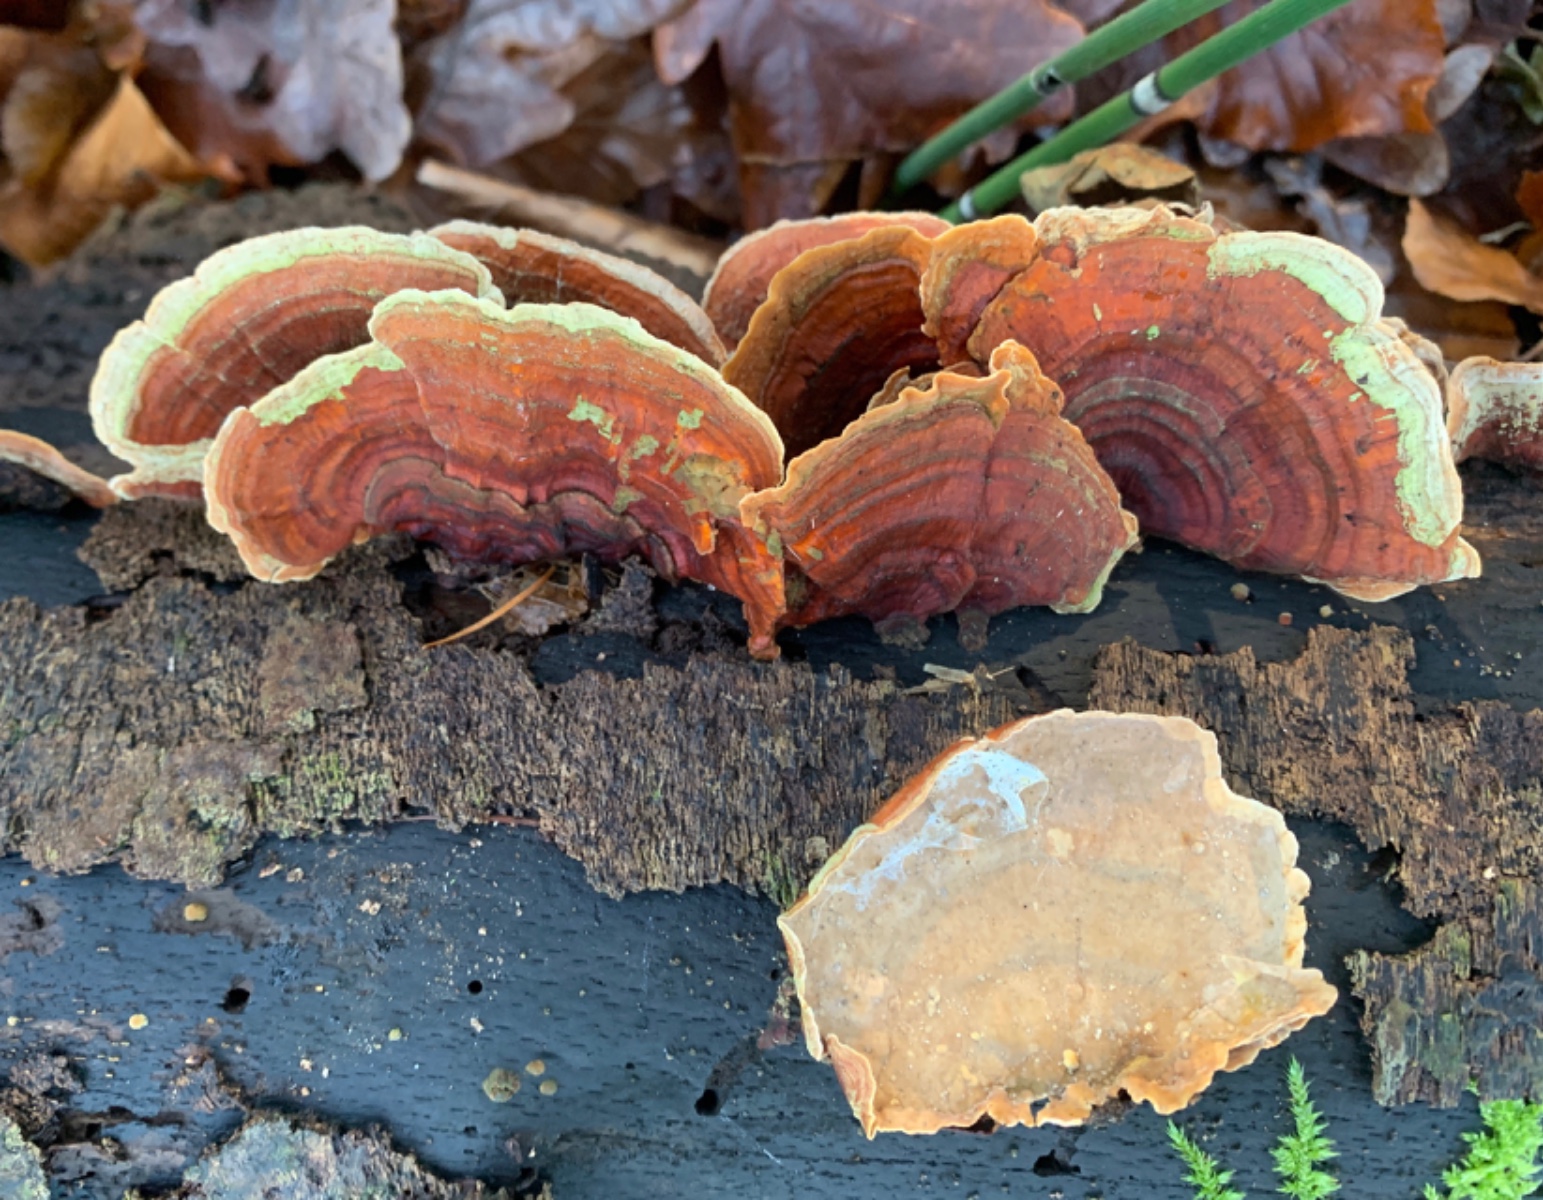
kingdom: Fungi
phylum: Basidiomycota
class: Agaricomycetes
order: Russulales
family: Stereaceae
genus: Stereum
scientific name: Stereum subtomentosum
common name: smuk lædersvamp
